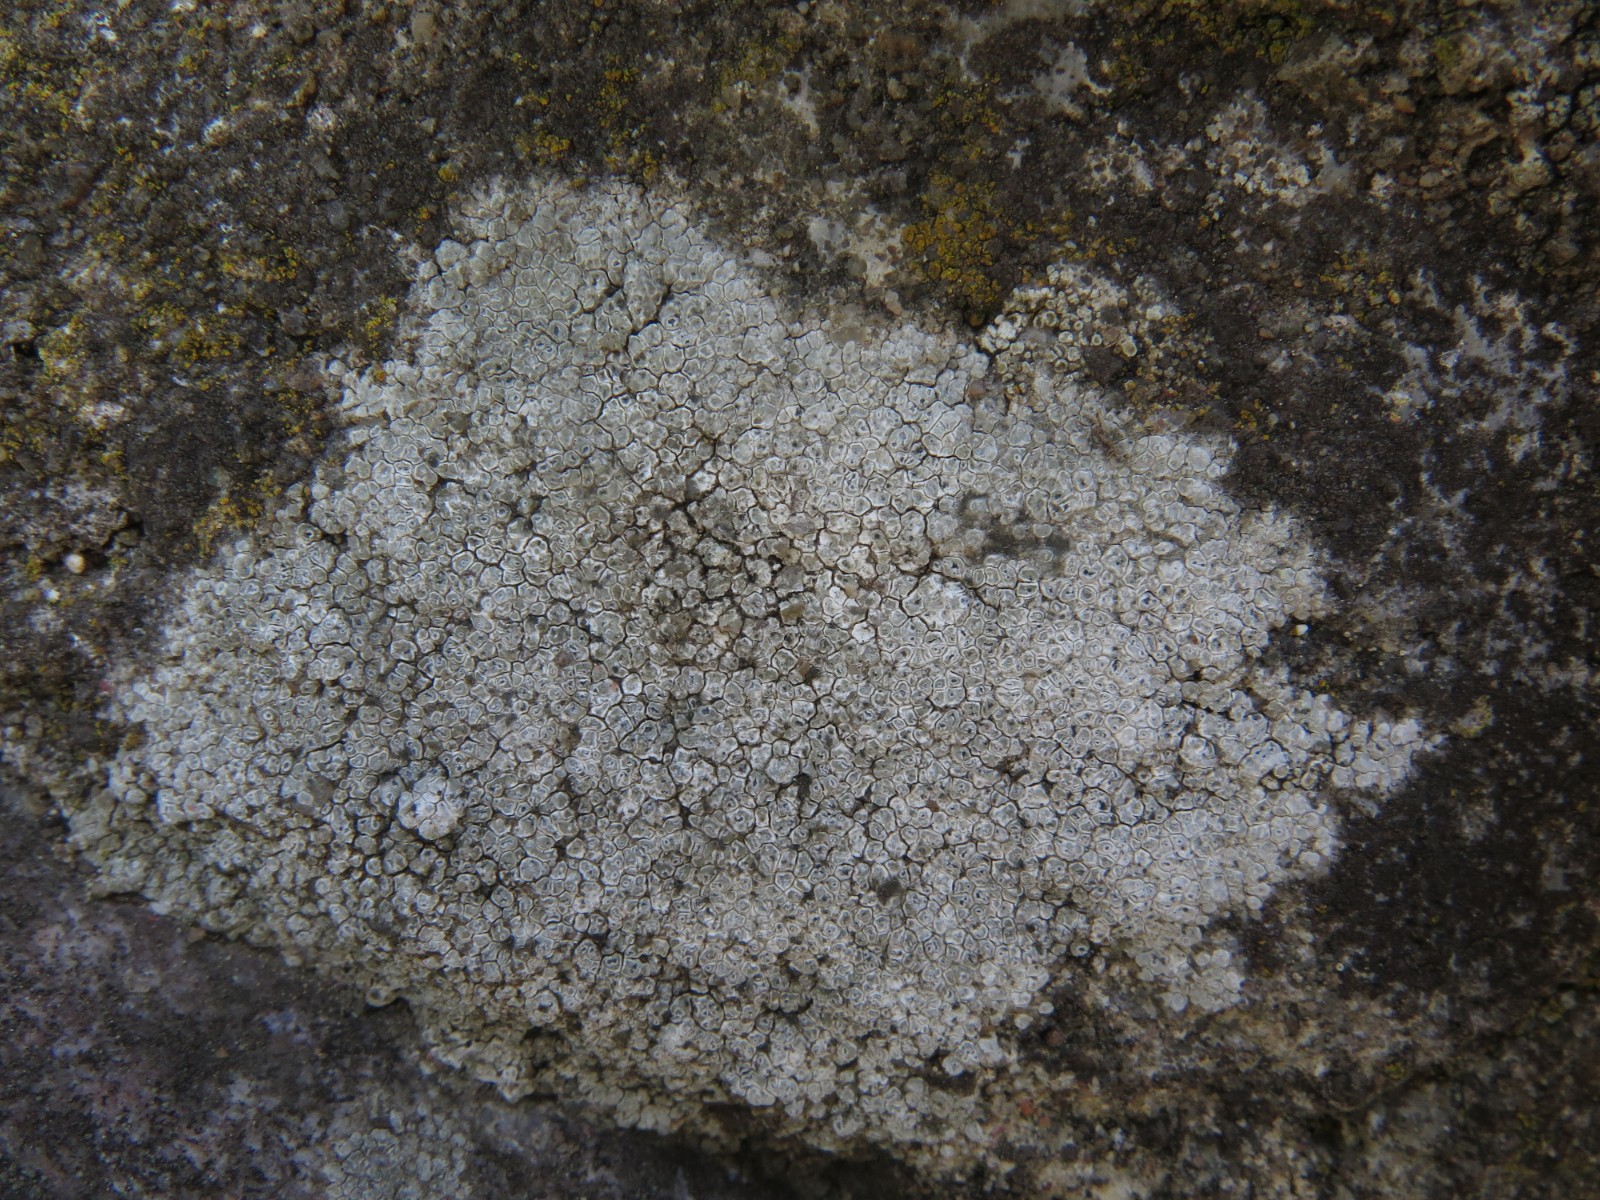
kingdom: Fungi
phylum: Ascomycota
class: Lecanoromycetes
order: Pertusariales
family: Megasporaceae
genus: Circinaria
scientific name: Circinaria contorta
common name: indviklet hulskivelav
